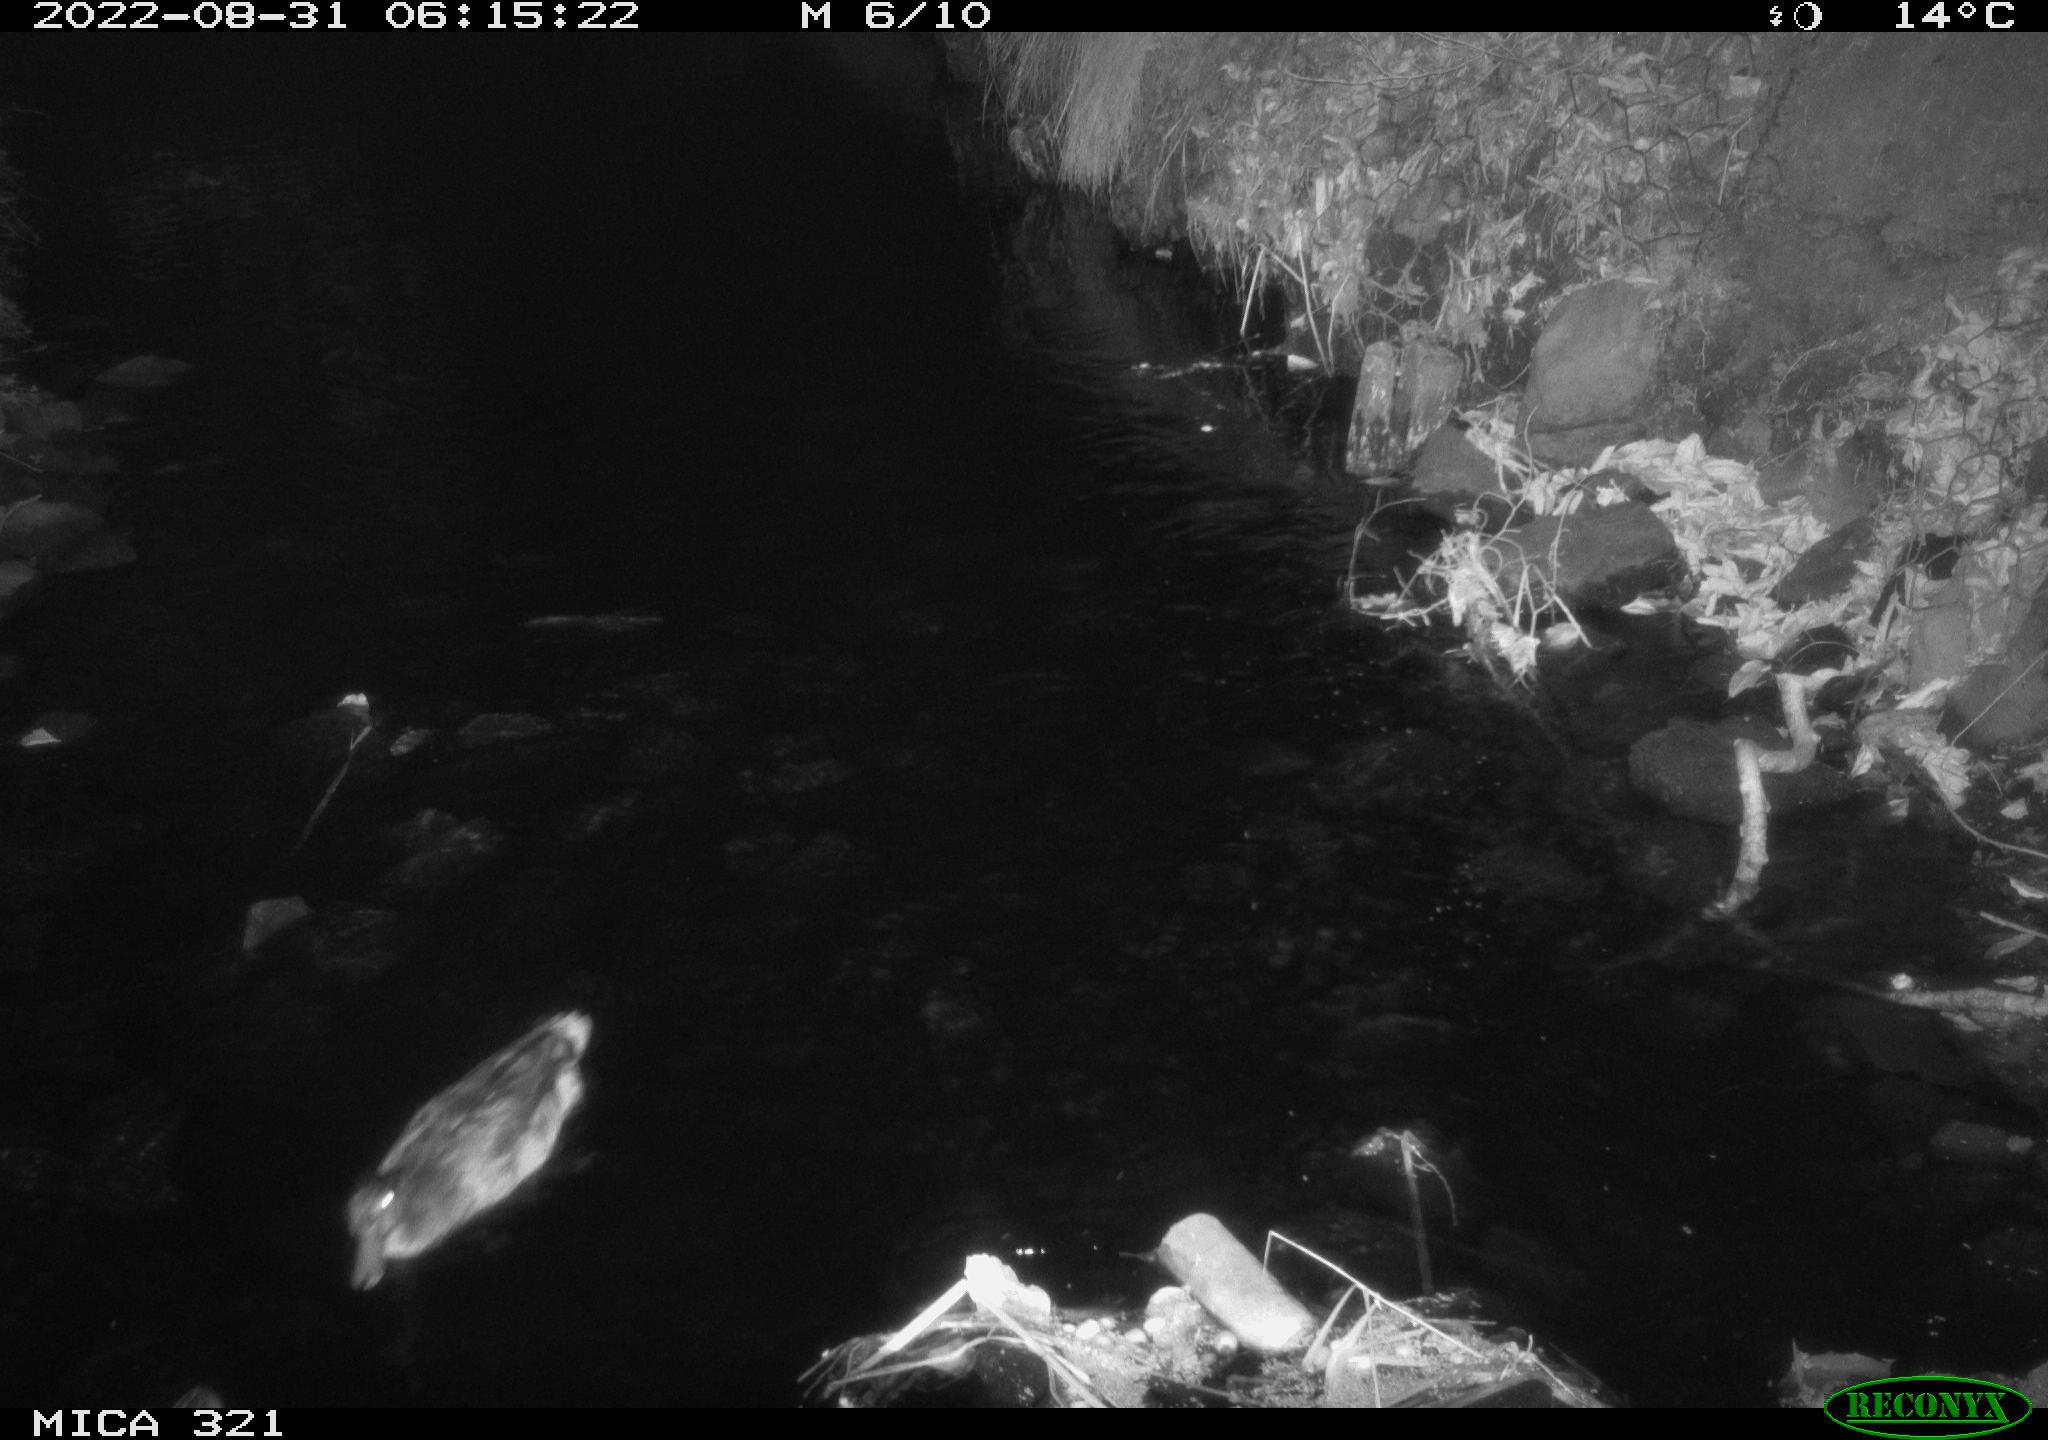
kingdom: Animalia
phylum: Chordata
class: Aves
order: Anseriformes
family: Anatidae
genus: Anas
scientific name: Anas platyrhynchos
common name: Mallard
